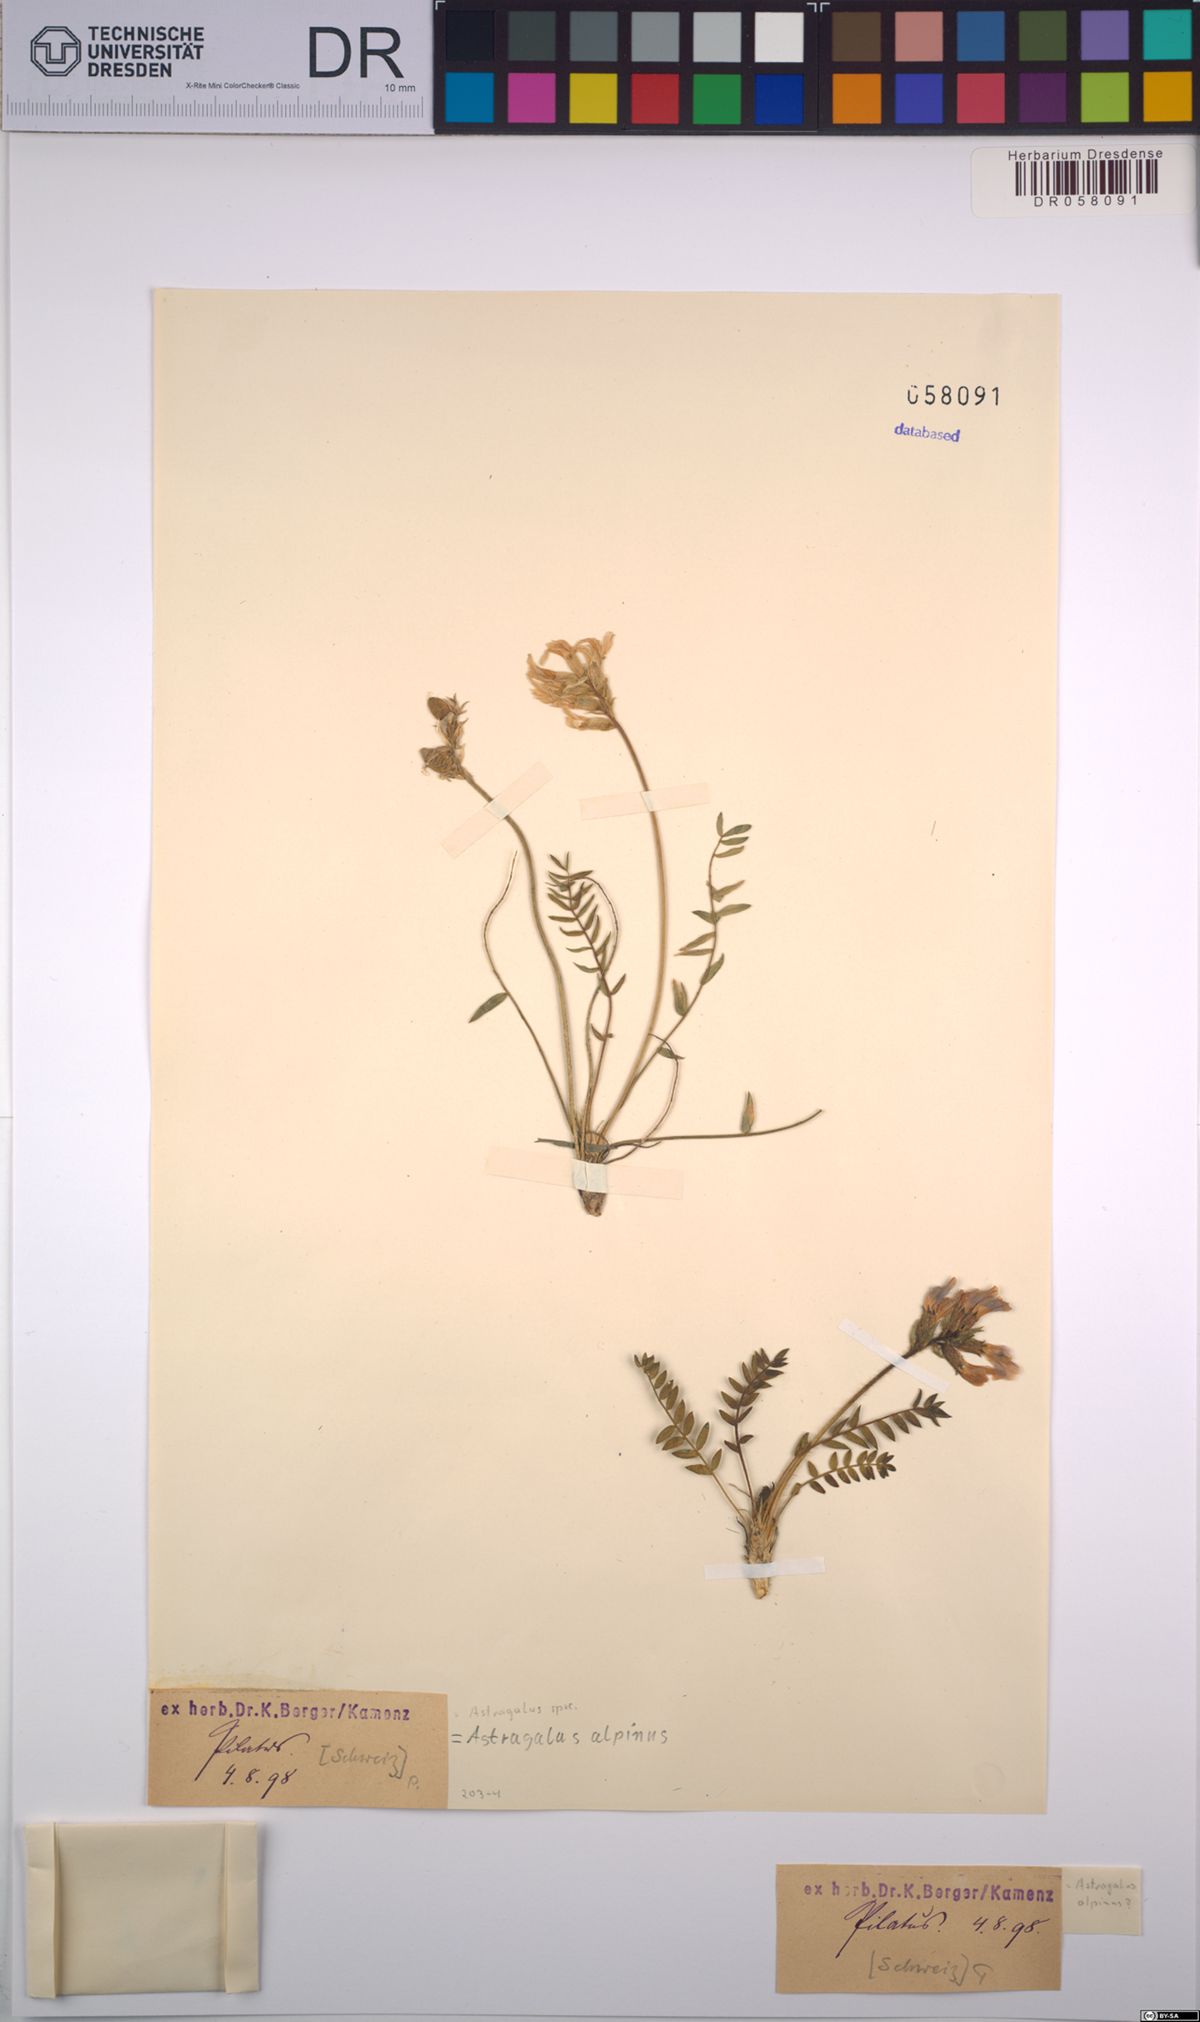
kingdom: Plantae
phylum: Tracheophyta
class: Magnoliopsida
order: Fabales
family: Fabaceae
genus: Astragalus
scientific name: Astragalus alpinus
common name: Alpine milk-vetch
